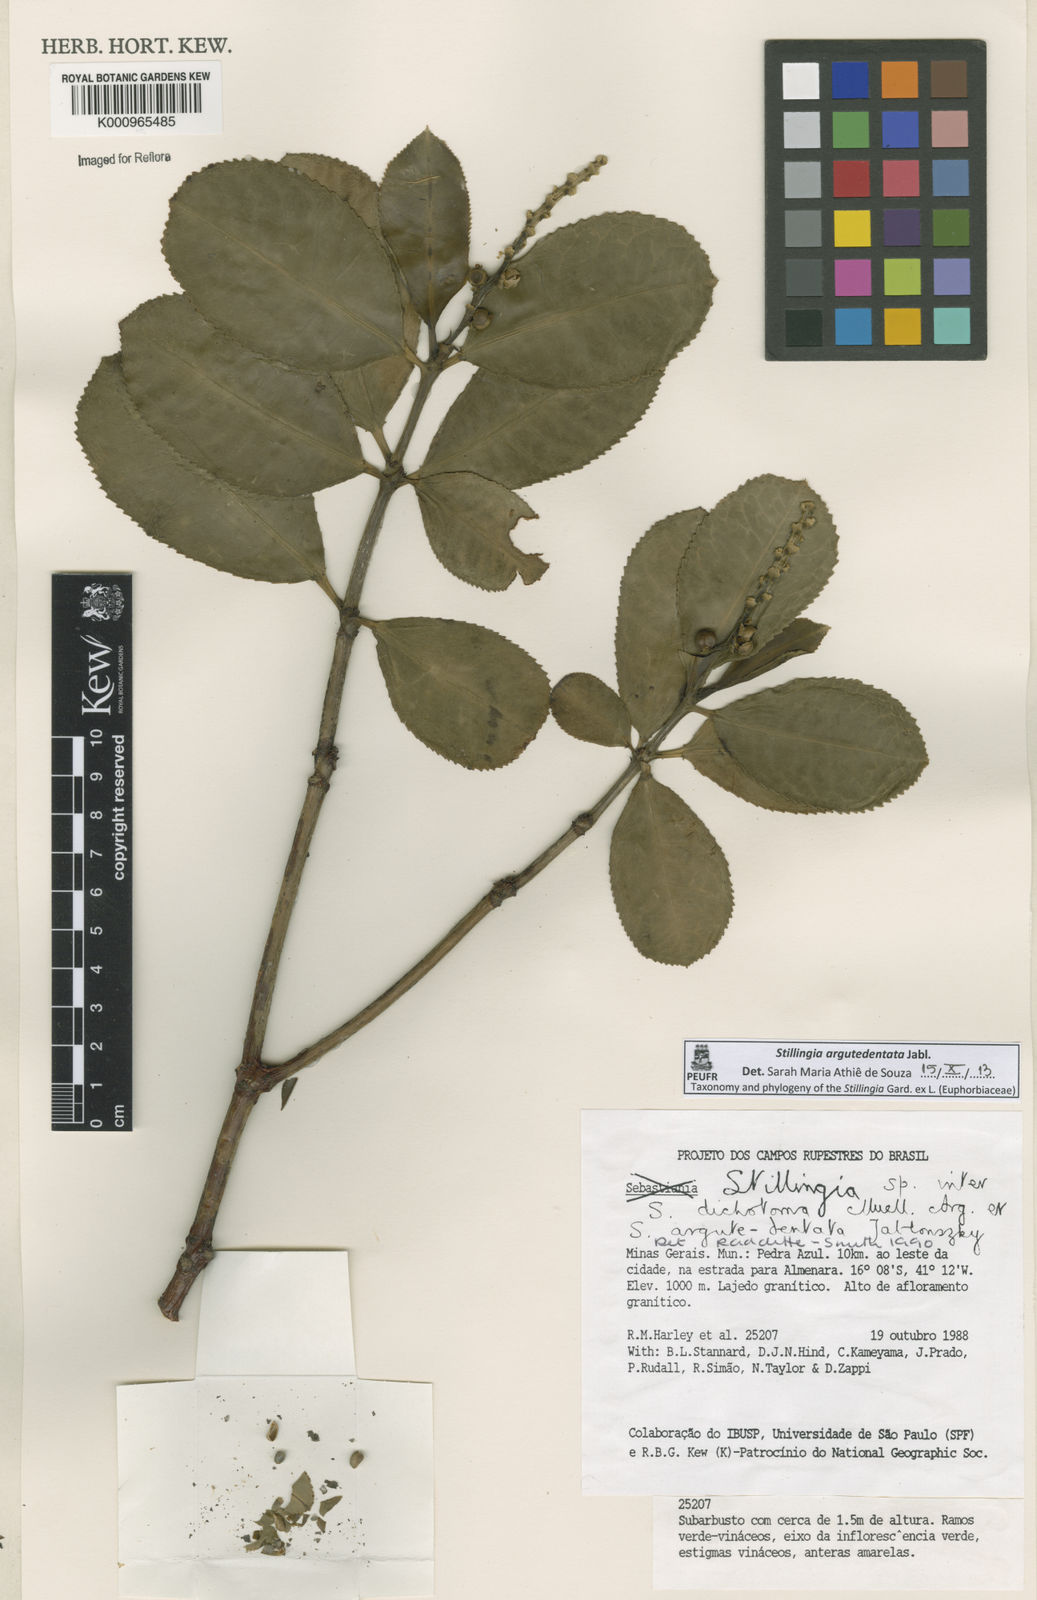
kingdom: Plantae
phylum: Tracheophyta
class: Magnoliopsida
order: Malpighiales
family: Euphorbiaceae
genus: Stillingia
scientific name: Stillingia argutedentata
